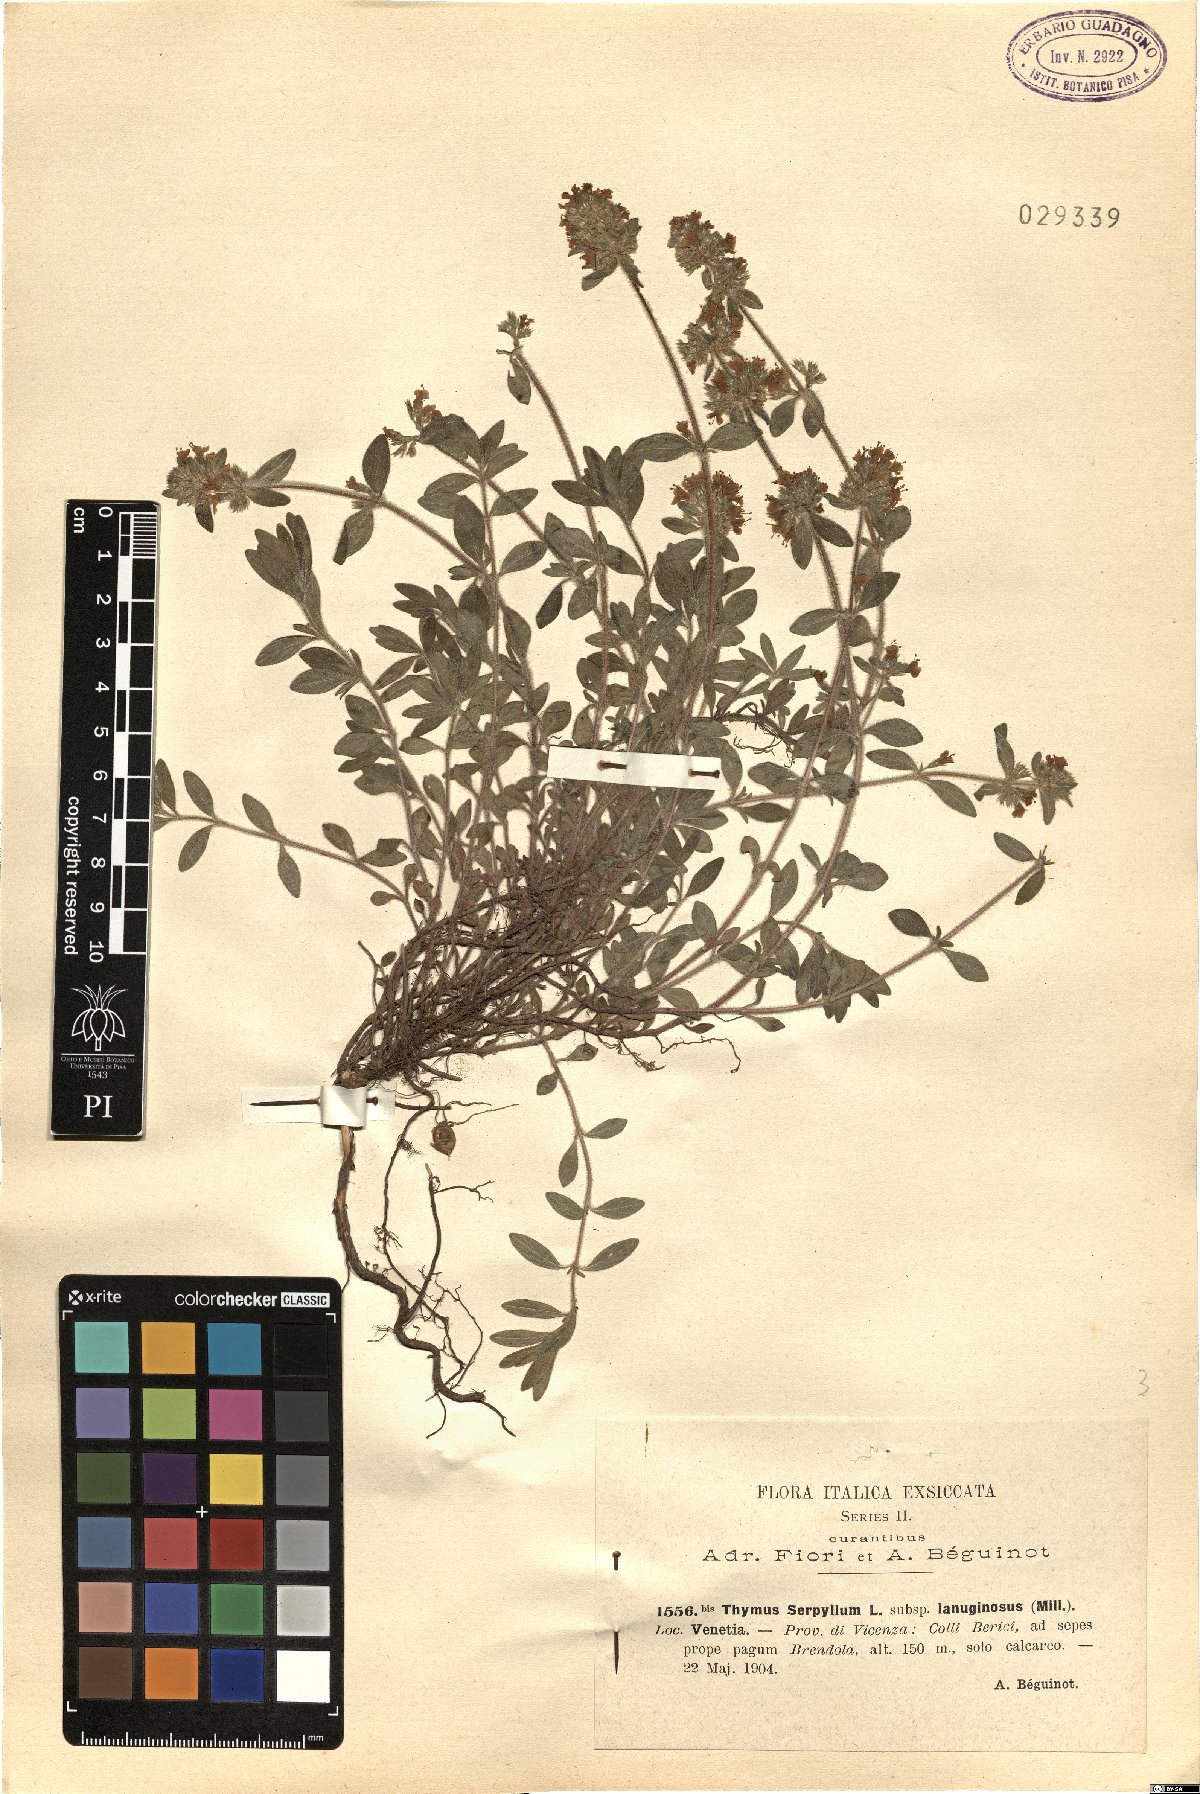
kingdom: Plantae
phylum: Tracheophyta
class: Magnoliopsida
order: Lamiales
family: Lamiaceae
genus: Thymus
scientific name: Thymus pulegioides
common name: Large thyme
